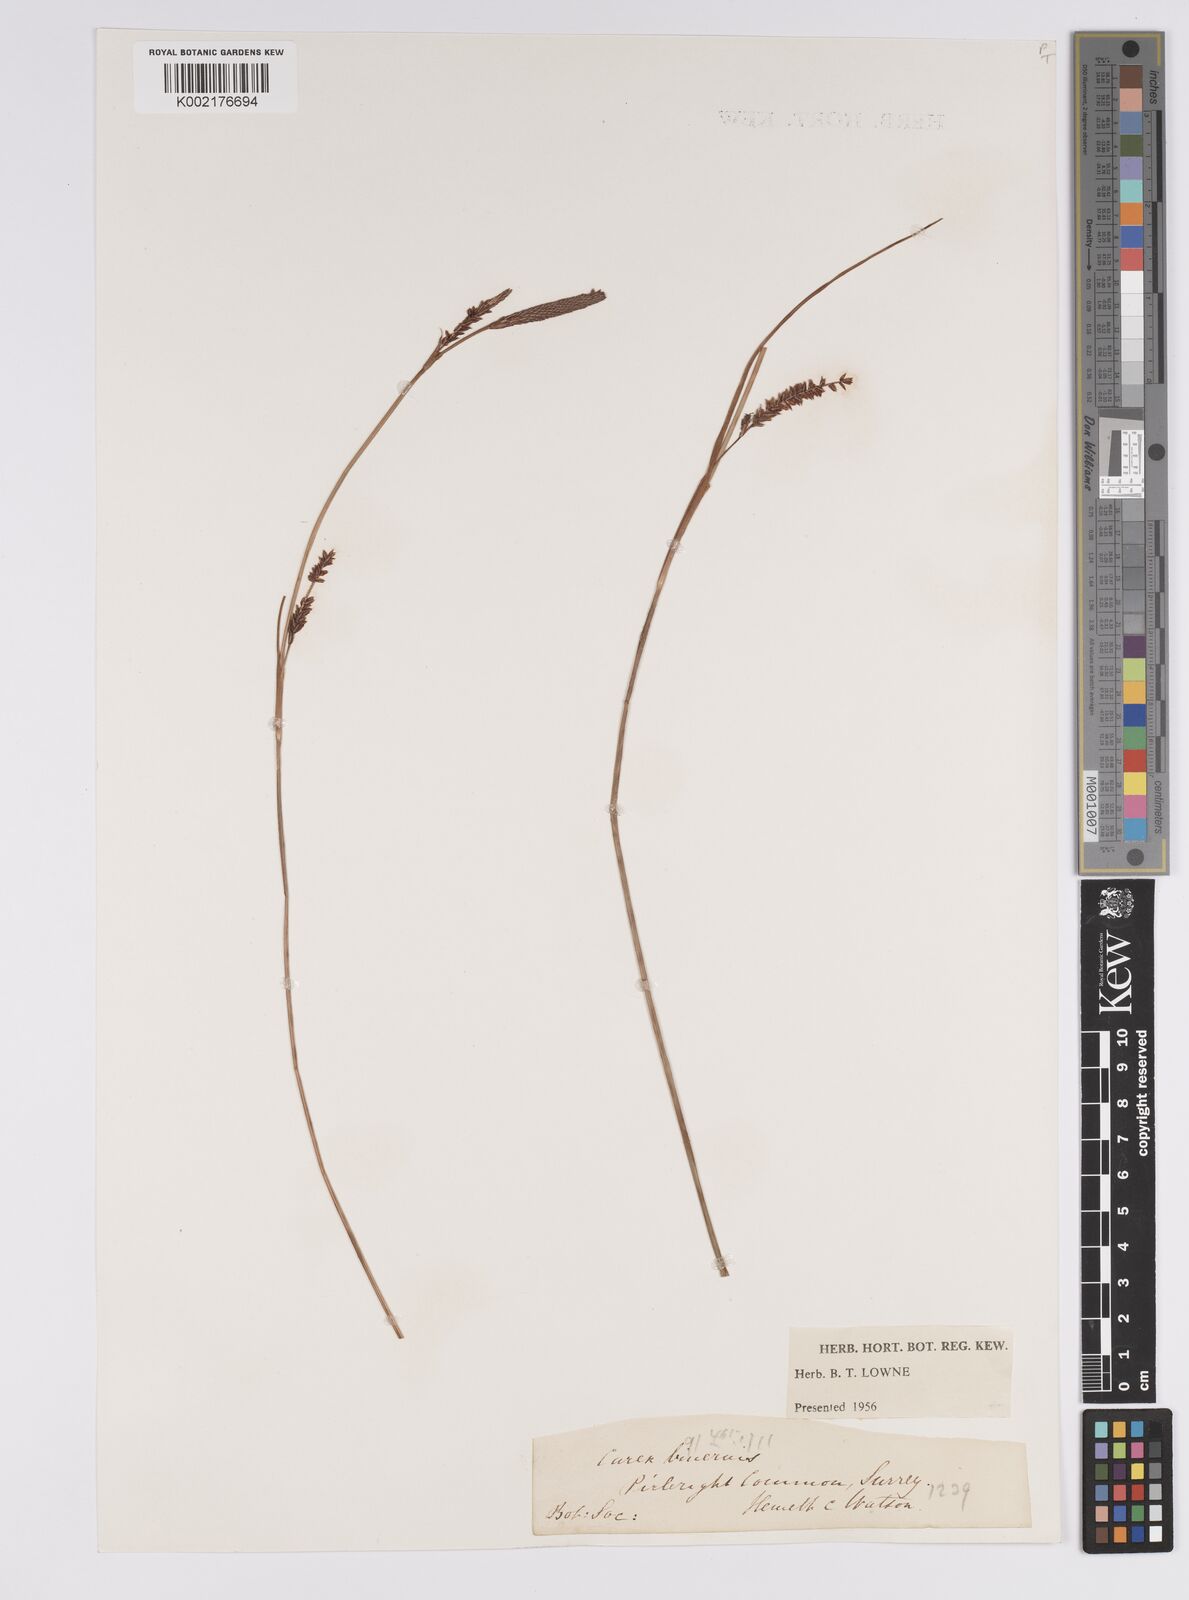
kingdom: Plantae
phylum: Tracheophyta
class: Liliopsida
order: Poales
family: Cyperaceae
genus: Carex
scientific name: Carex binervis
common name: Green-ribbed sedge
